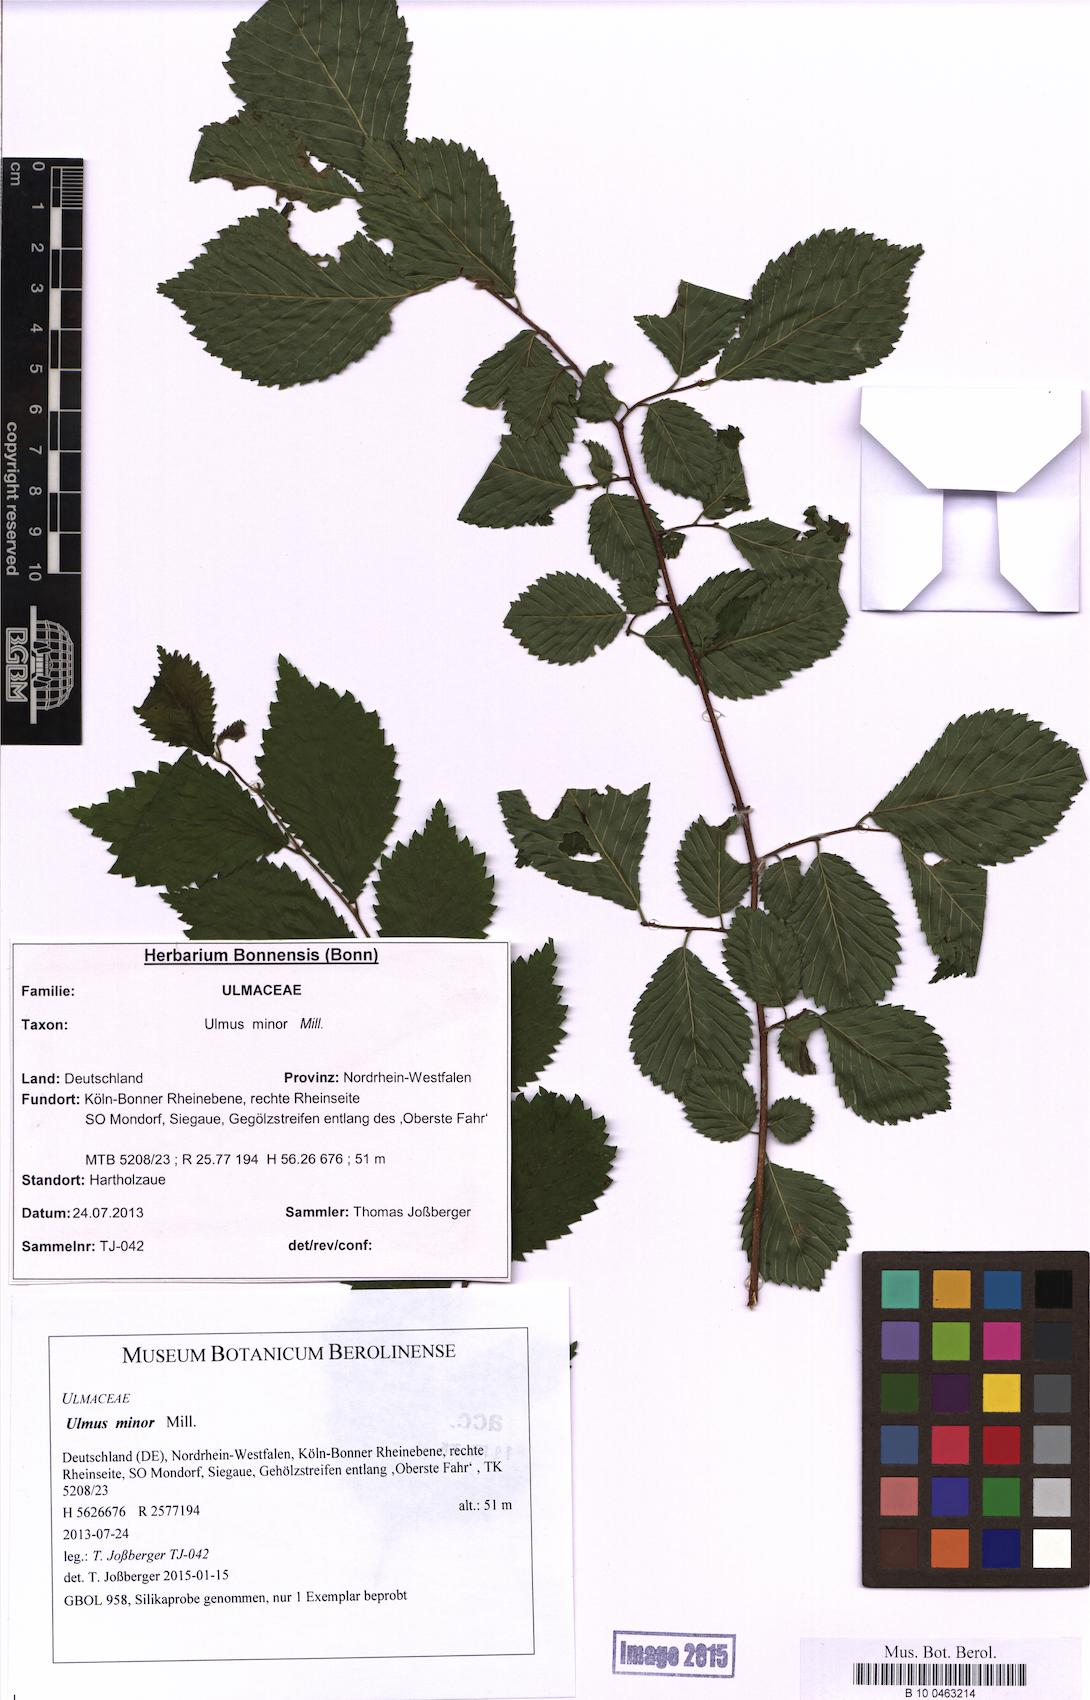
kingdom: Plantae
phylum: Tracheophyta
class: Magnoliopsida
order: Rosales
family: Ulmaceae
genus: Ulmus
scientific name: Ulmus minor
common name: Small-leaved elm
